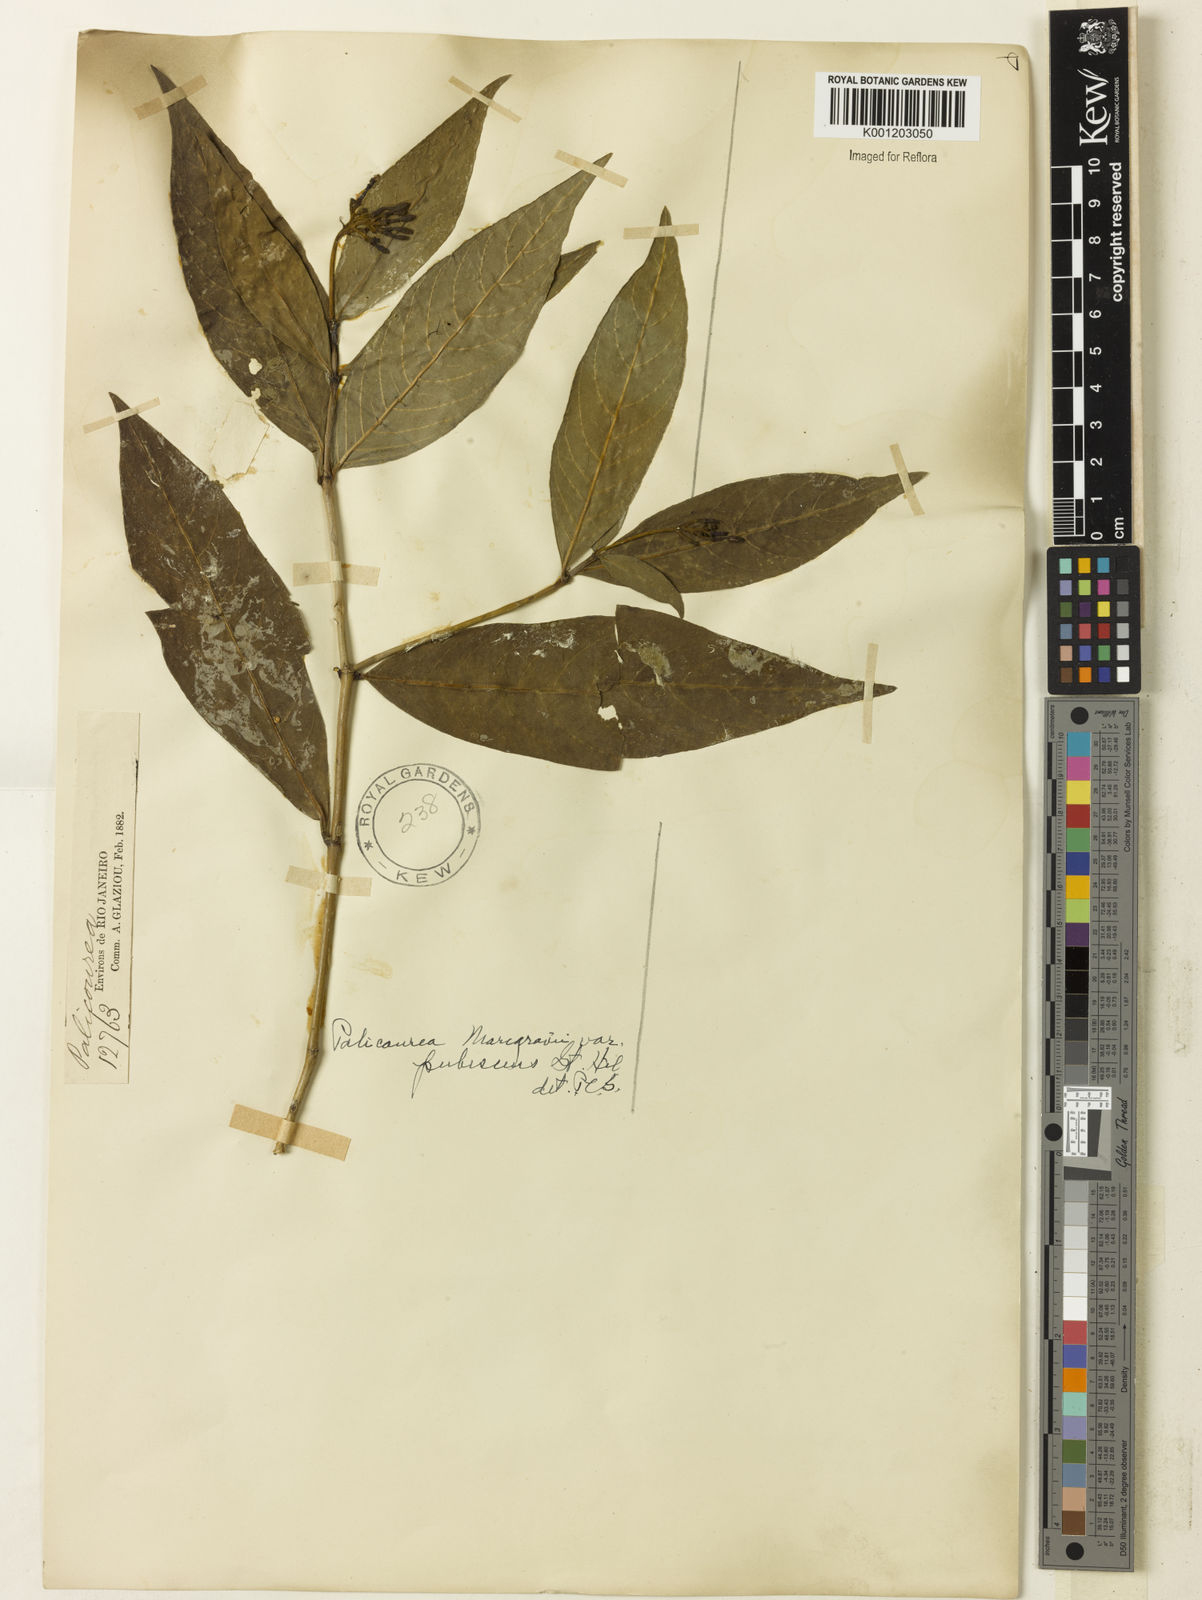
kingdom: Plantae
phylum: Tracheophyta
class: Magnoliopsida
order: Gentianales
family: Rubiaceae
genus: Palicourea
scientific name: Palicourea marcgravii
